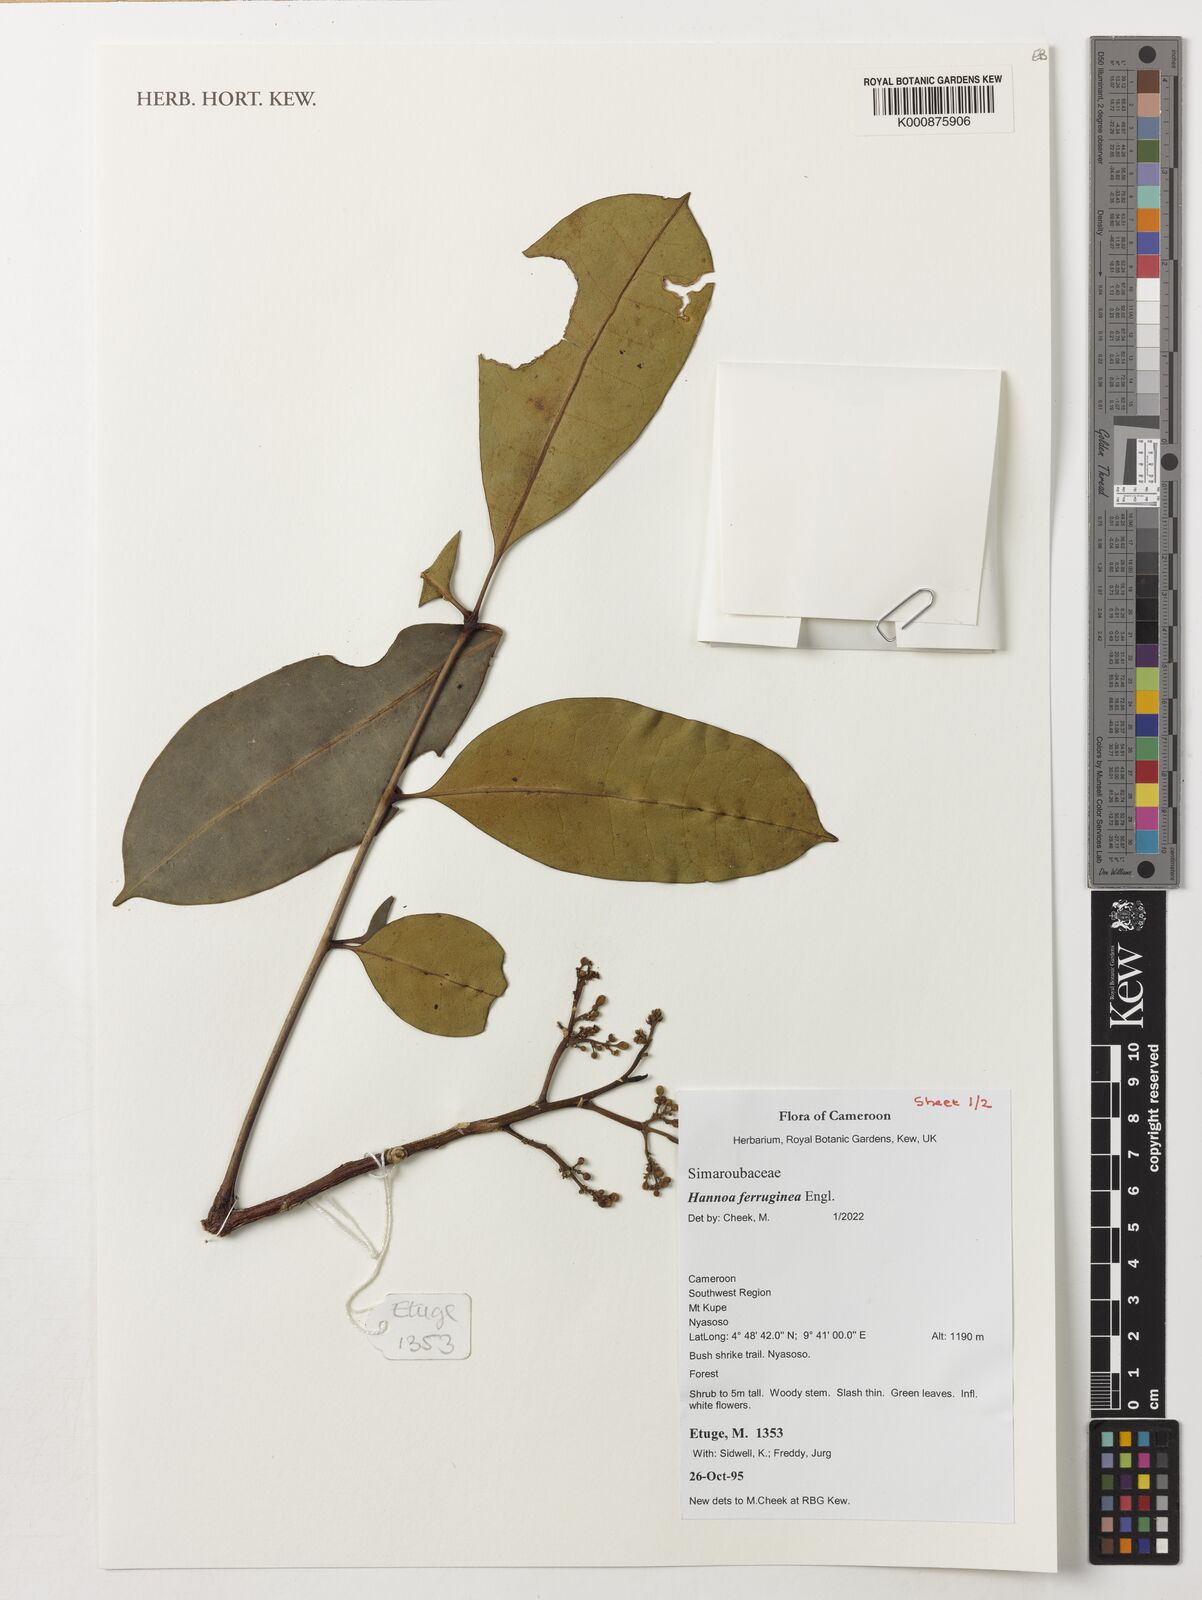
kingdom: Plantae
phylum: Tracheophyta
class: Magnoliopsida
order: Sapindales
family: Simaroubaceae
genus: Hannoa
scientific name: Hannoa ferruginea
